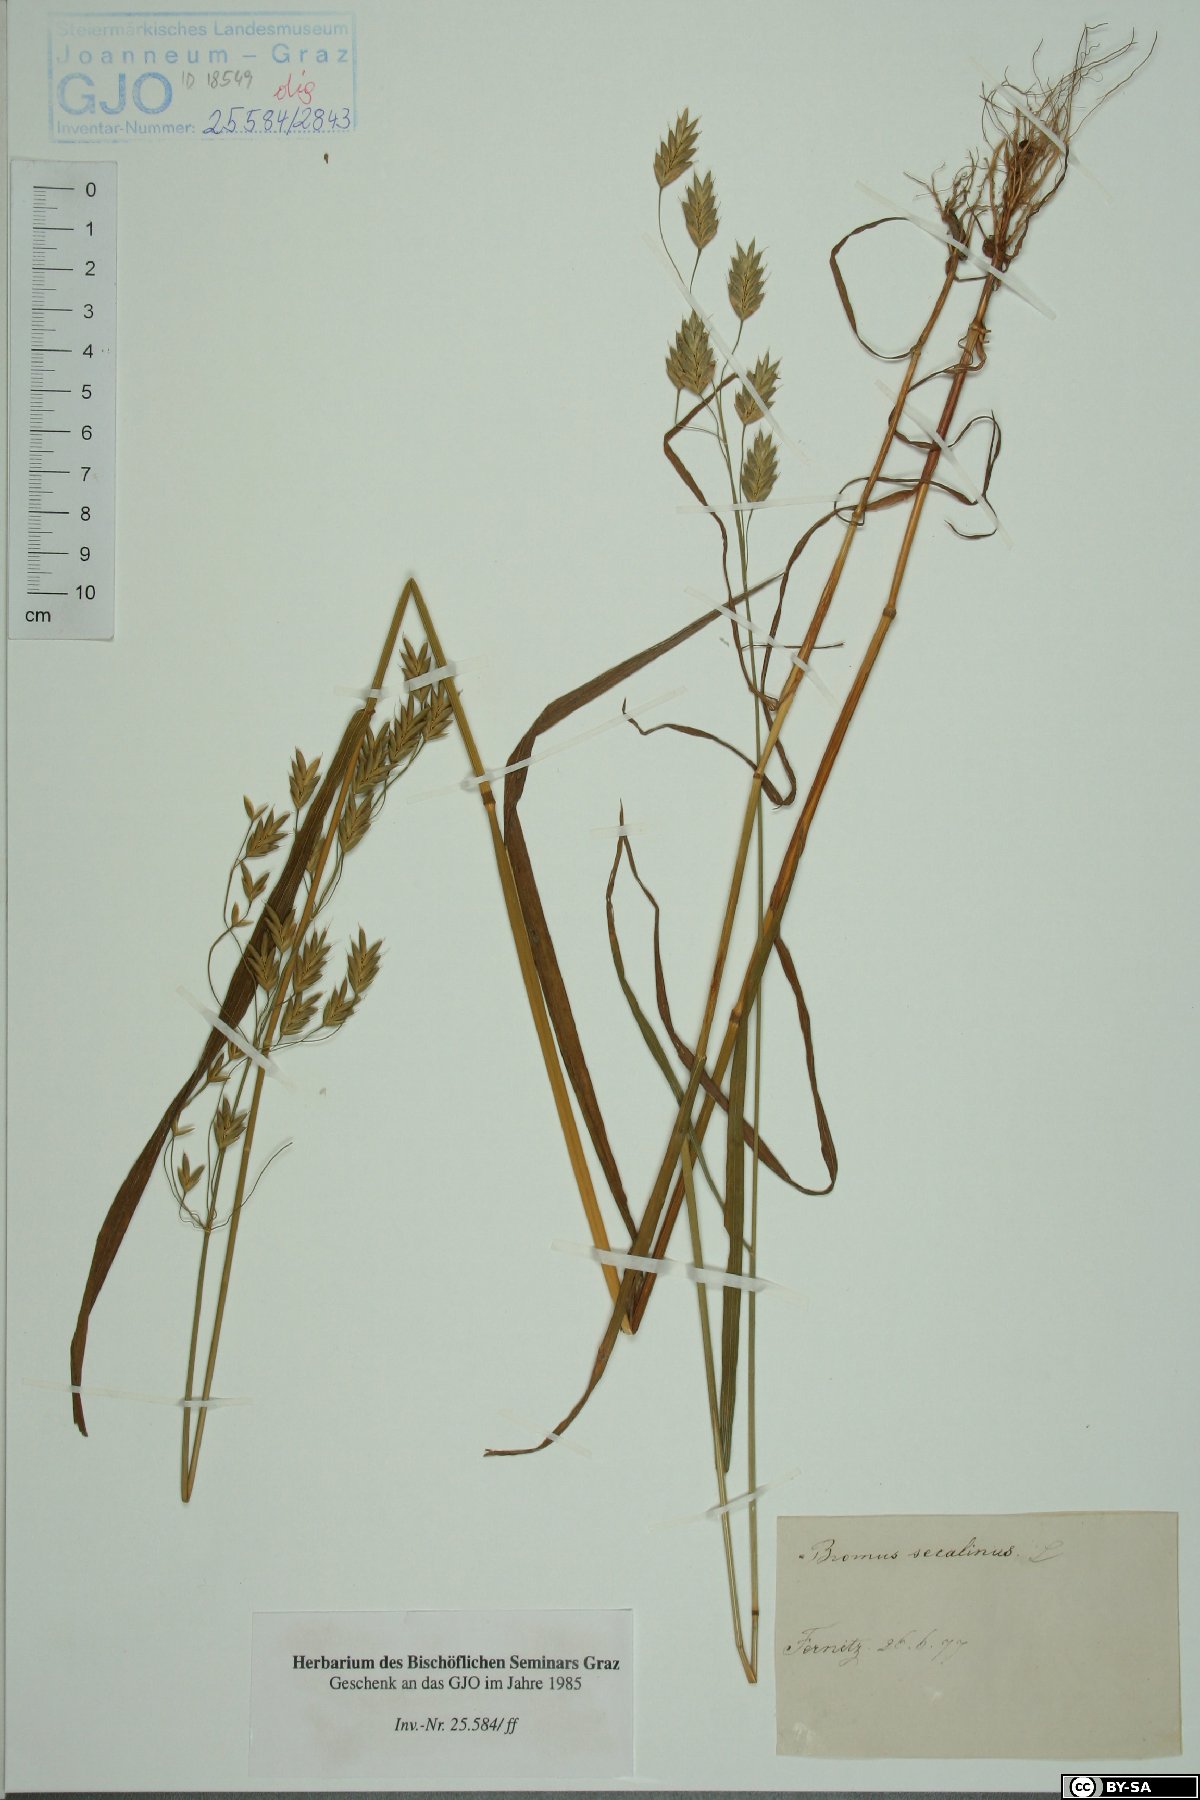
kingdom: Plantae
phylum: Tracheophyta
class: Liliopsida
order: Poales
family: Poaceae
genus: Bromus
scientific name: Bromus secalinus
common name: Rye brome
